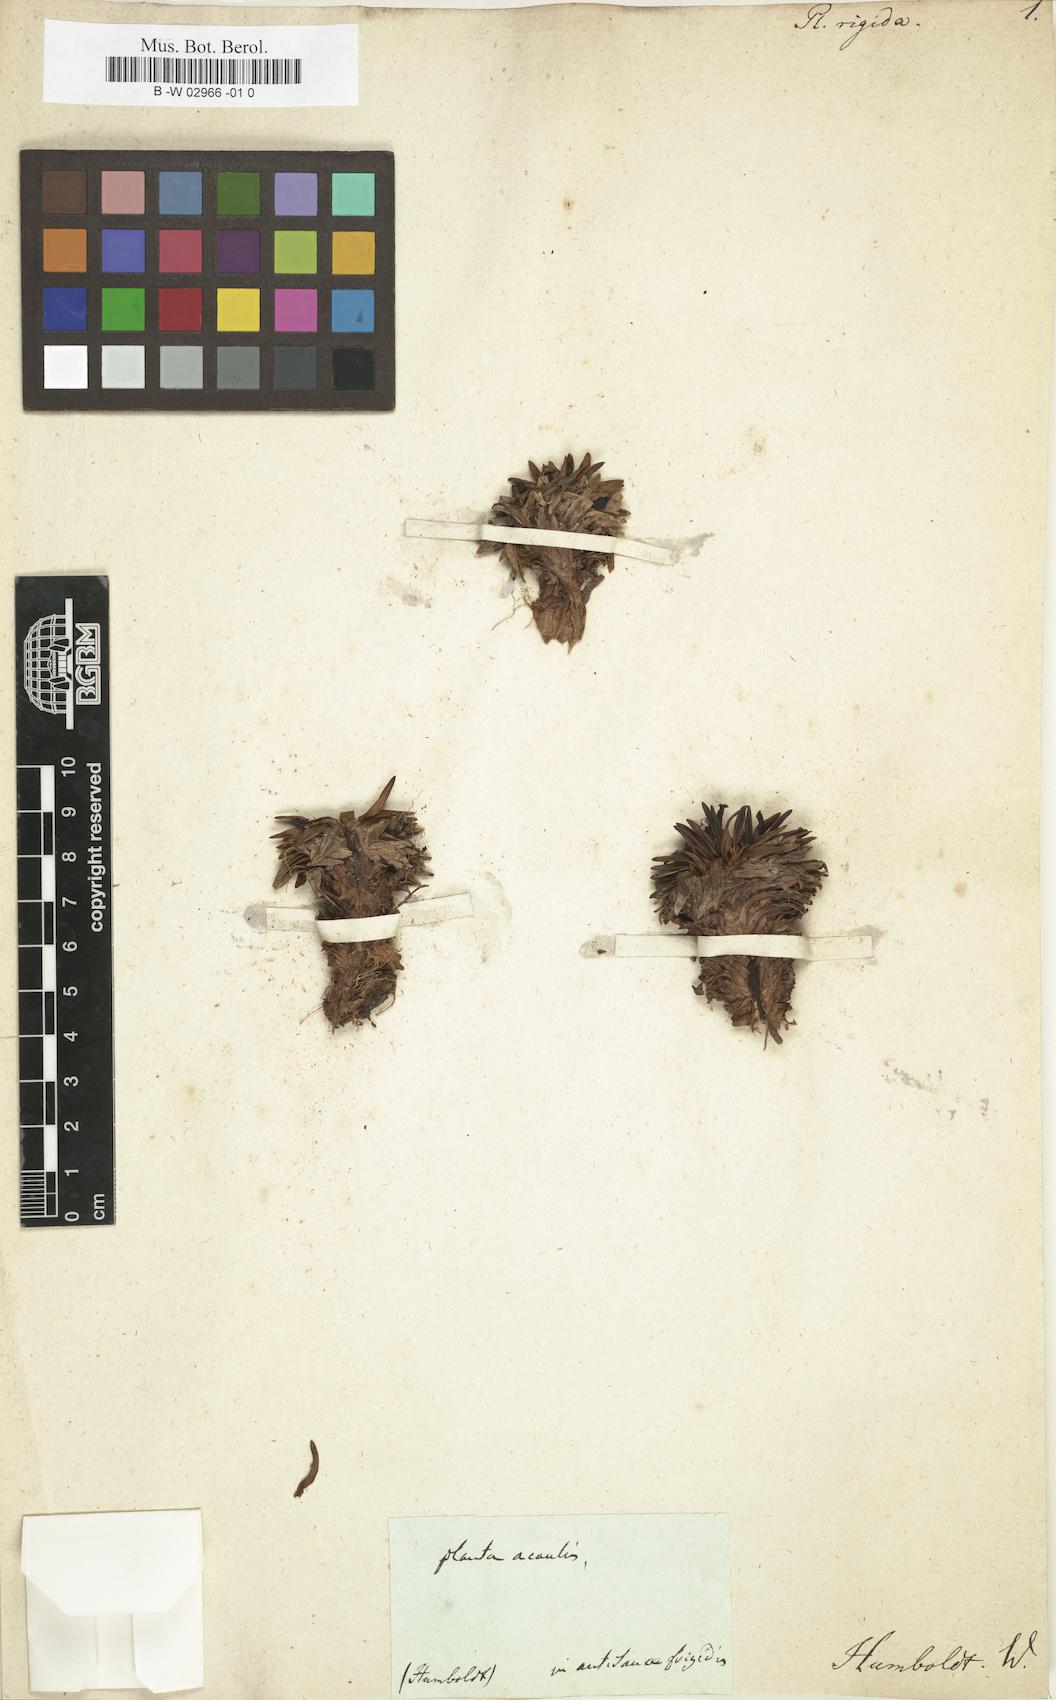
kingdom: Plantae
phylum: Tracheophyta
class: Magnoliopsida
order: Lamiales
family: Plantaginaceae
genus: Plantago
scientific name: Plantago rigida
